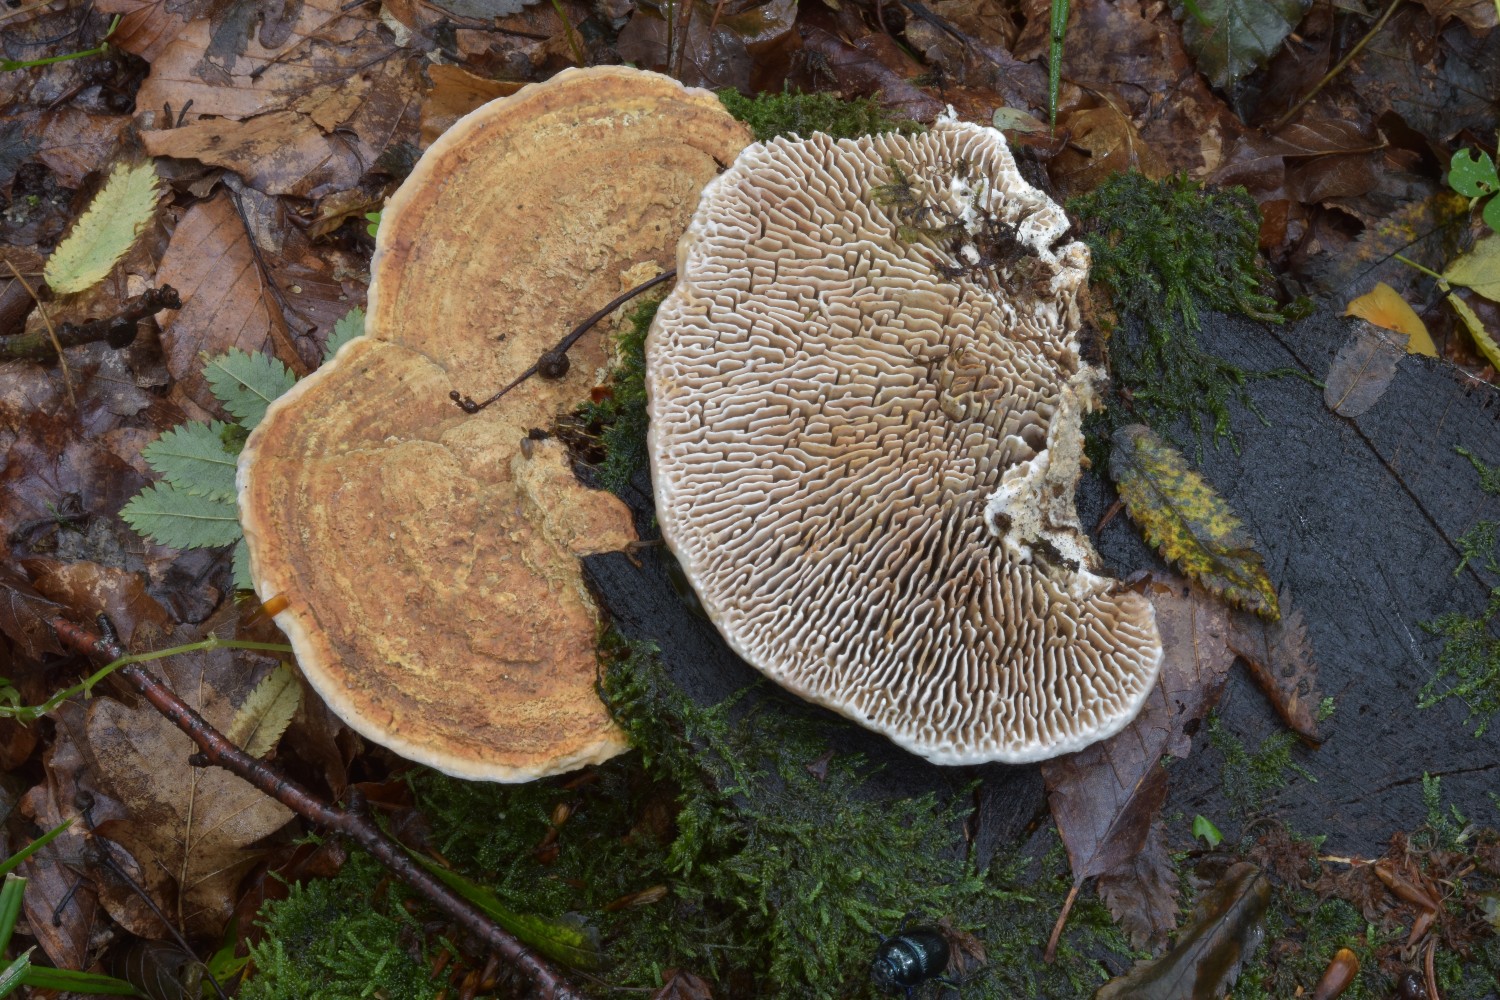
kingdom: Fungi
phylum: Basidiomycota
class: Agaricomycetes
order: Polyporales
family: Fomitopsidaceae
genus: Daedalea
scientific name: Daedalea quercina
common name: ege-labyrintsvamp
